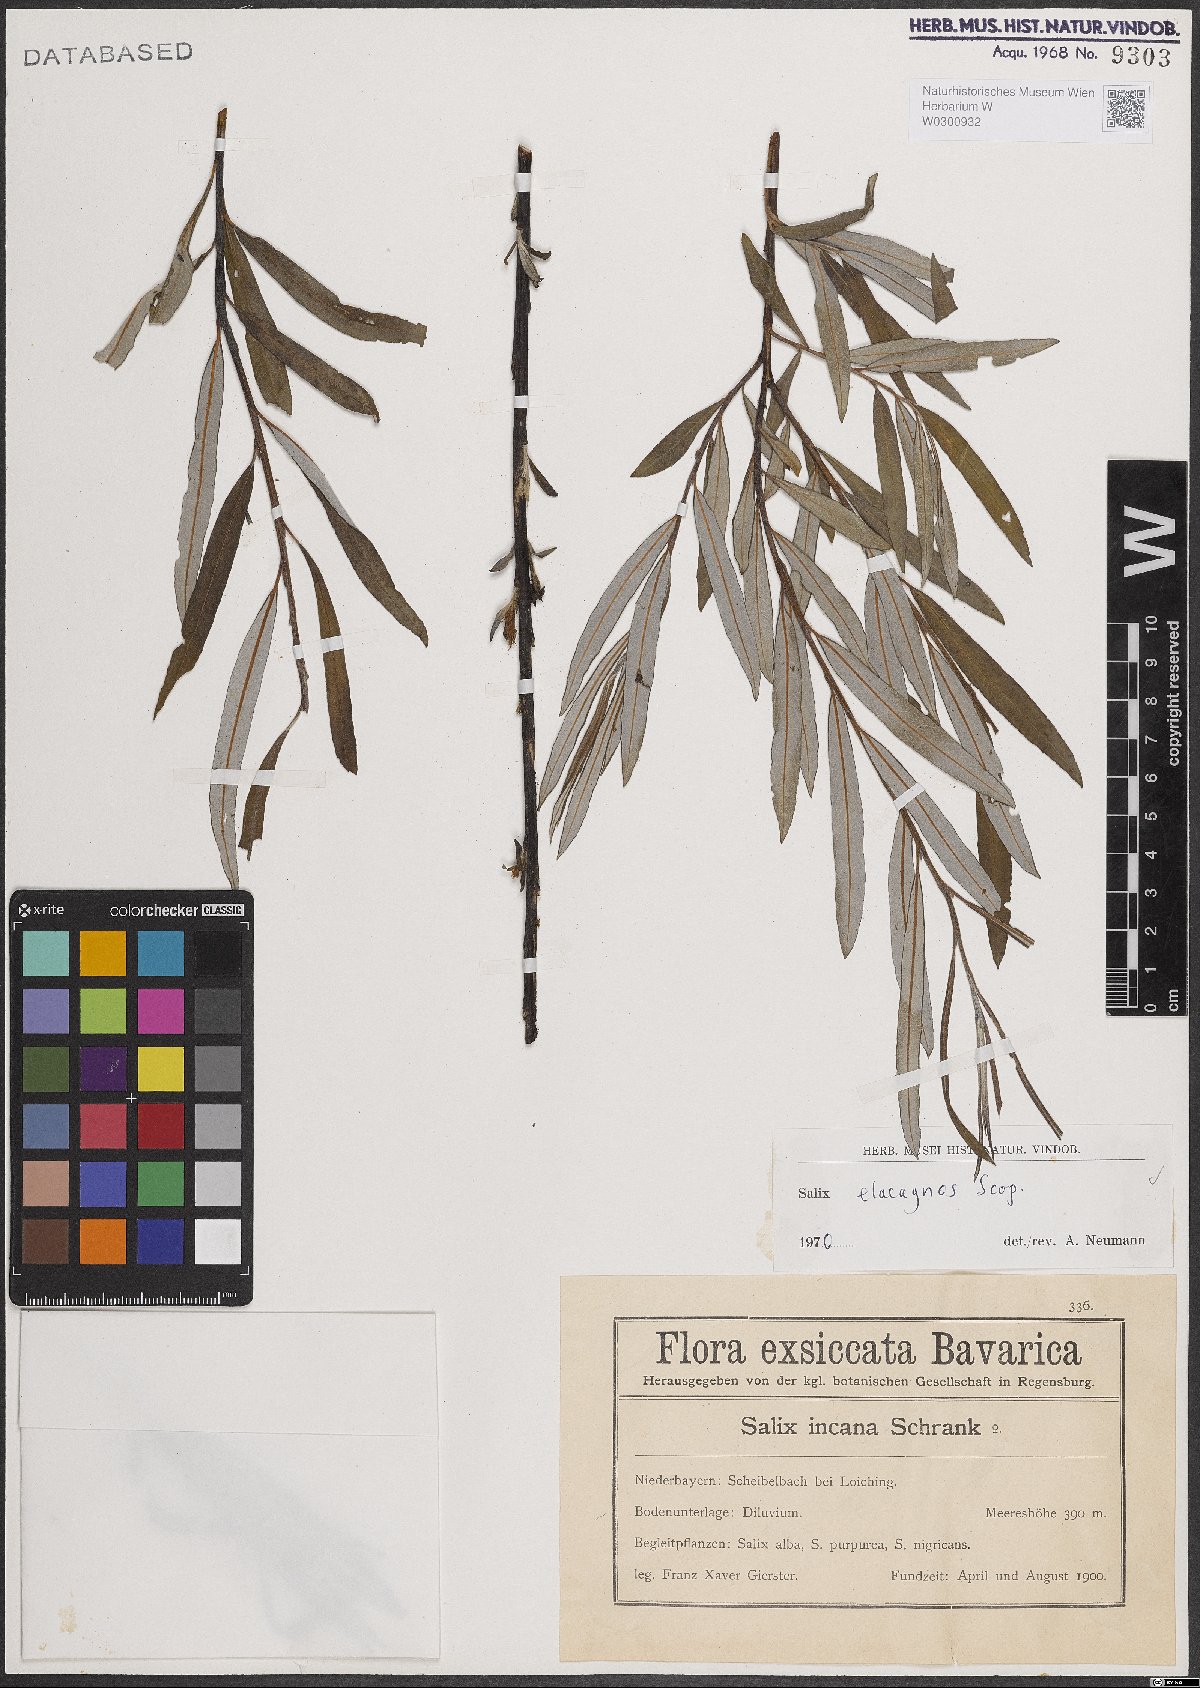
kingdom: Plantae
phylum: Tracheophyta
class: Magnoliopsida
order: Malpighiales
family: Salicaceae
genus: Salix
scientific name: Salix eleagnos
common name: Elaeagnus willow
